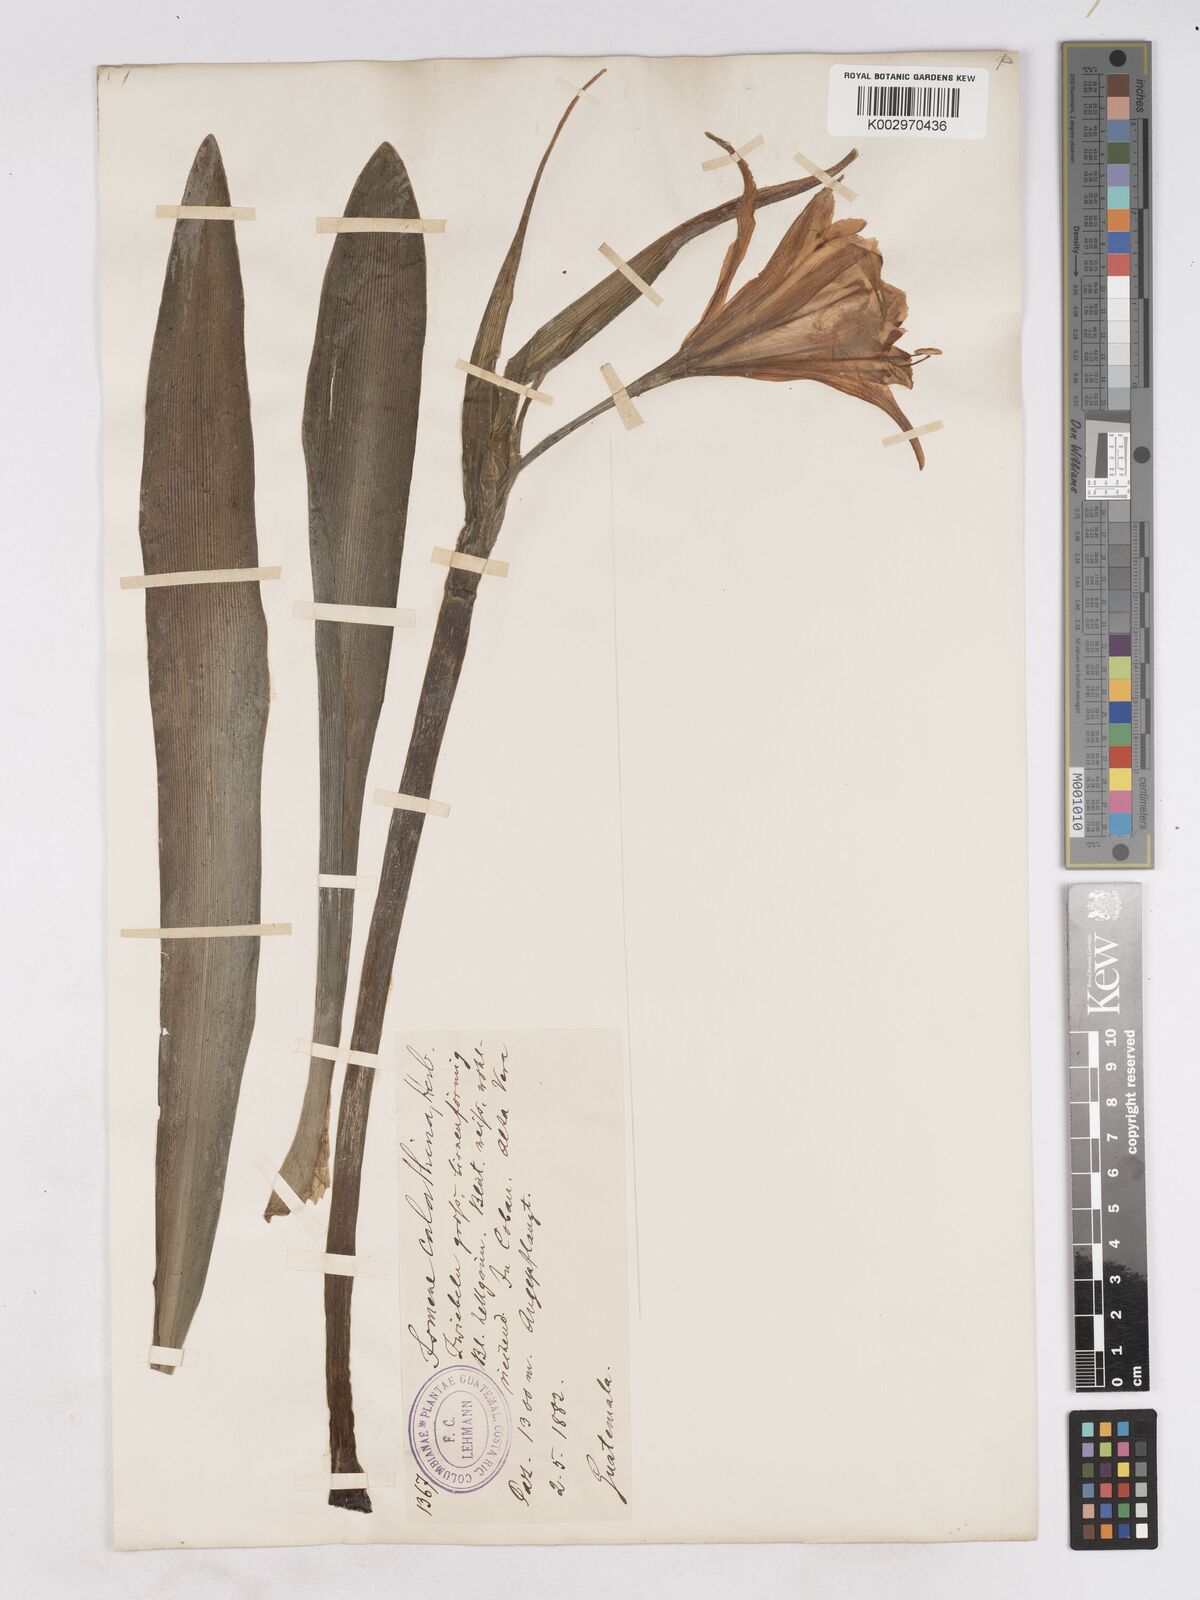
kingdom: Plantae
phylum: Tracheophyta
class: Liliopsida
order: Asparagales
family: Amaryllidaceae
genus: Ismene
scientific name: Ismene narcissiflora
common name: Peruvian-daffodil
